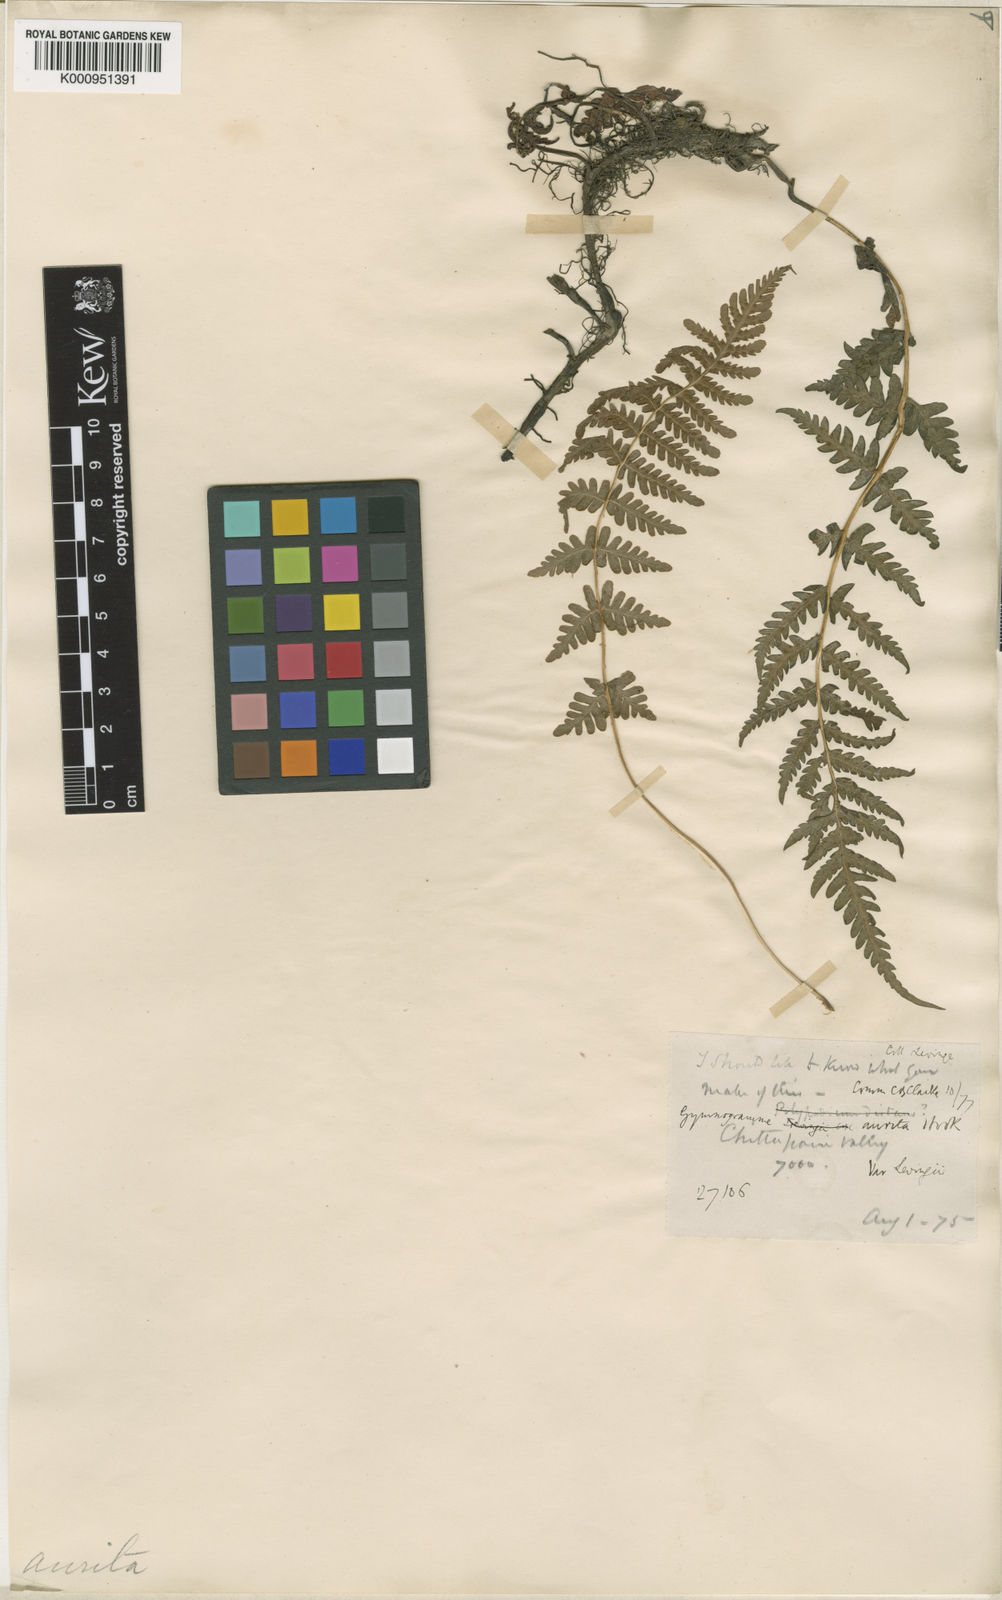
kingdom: Plantae
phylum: Tracheophyta
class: Polypodiopsida
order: Polypodiales
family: Thelypteridaceae
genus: Pseudophegopteris
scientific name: Pseudophegopteris levingei
